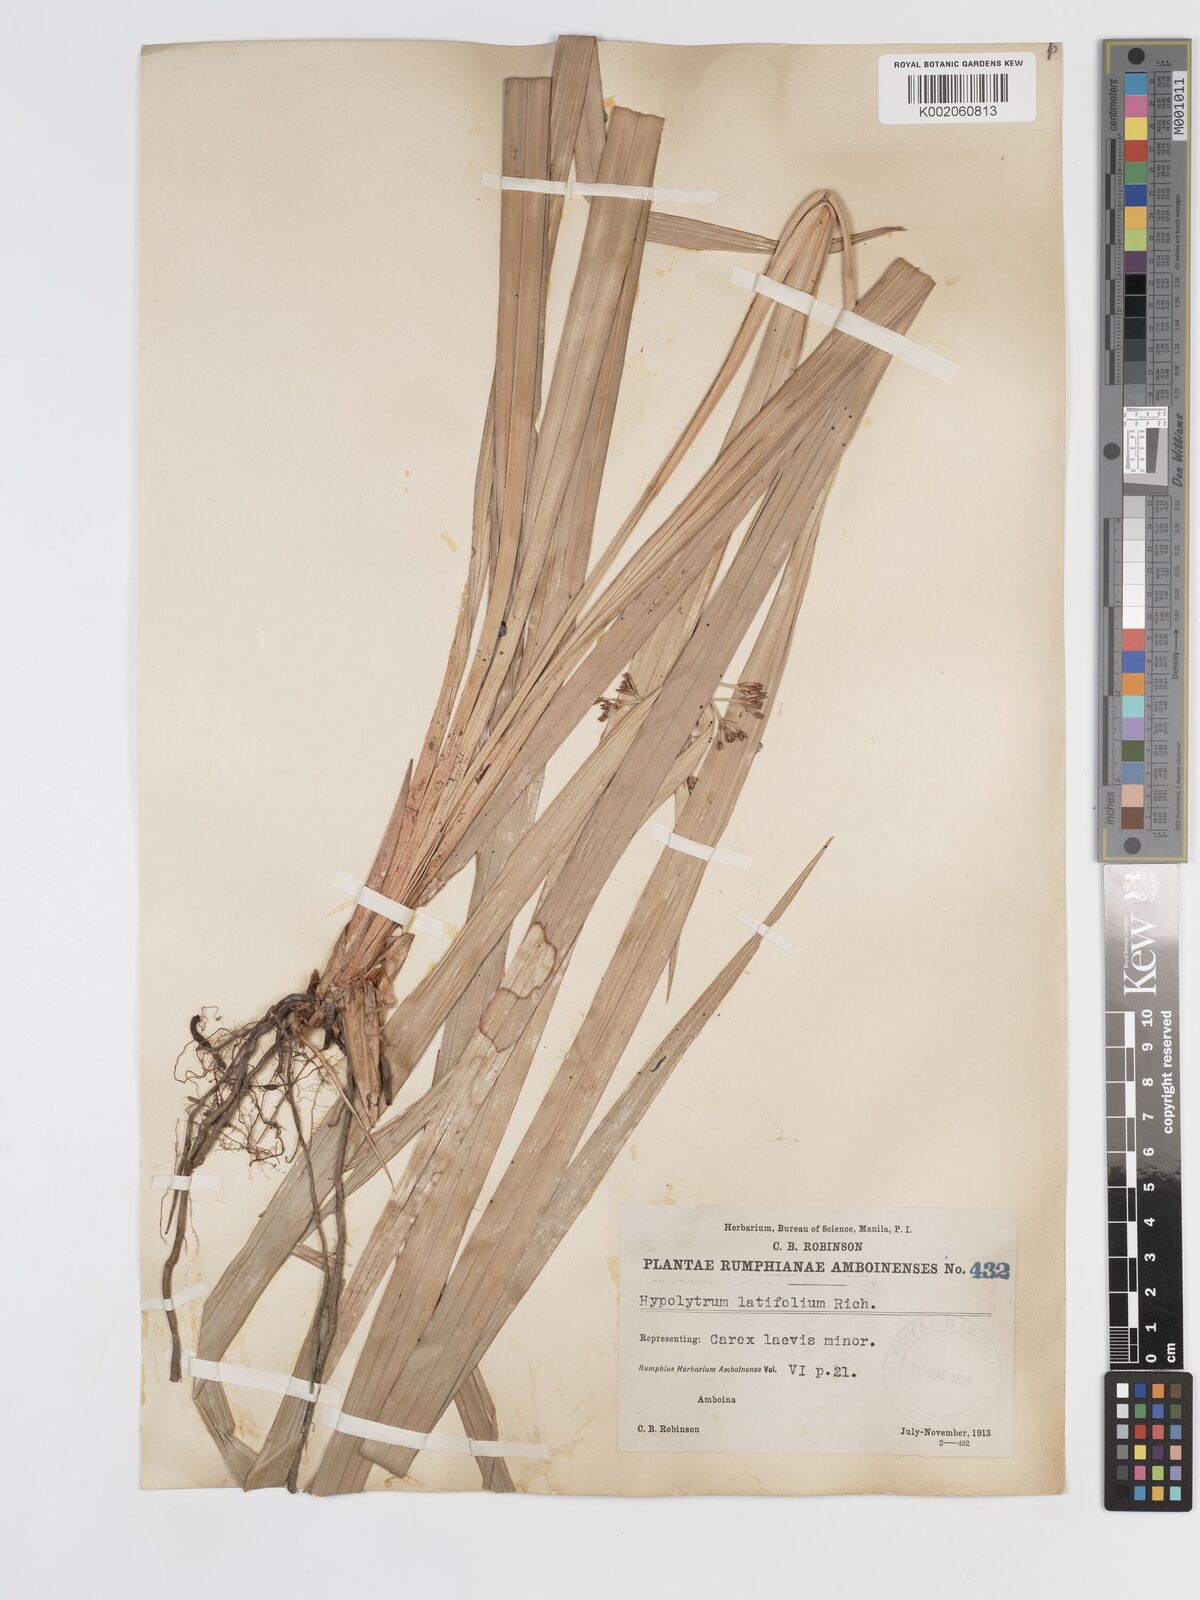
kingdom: Plantae
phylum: Tracheophyta
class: Liliopsida
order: Poales
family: Cyperaceae
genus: Hypolytrum
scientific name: Hypolytrum nemorum
